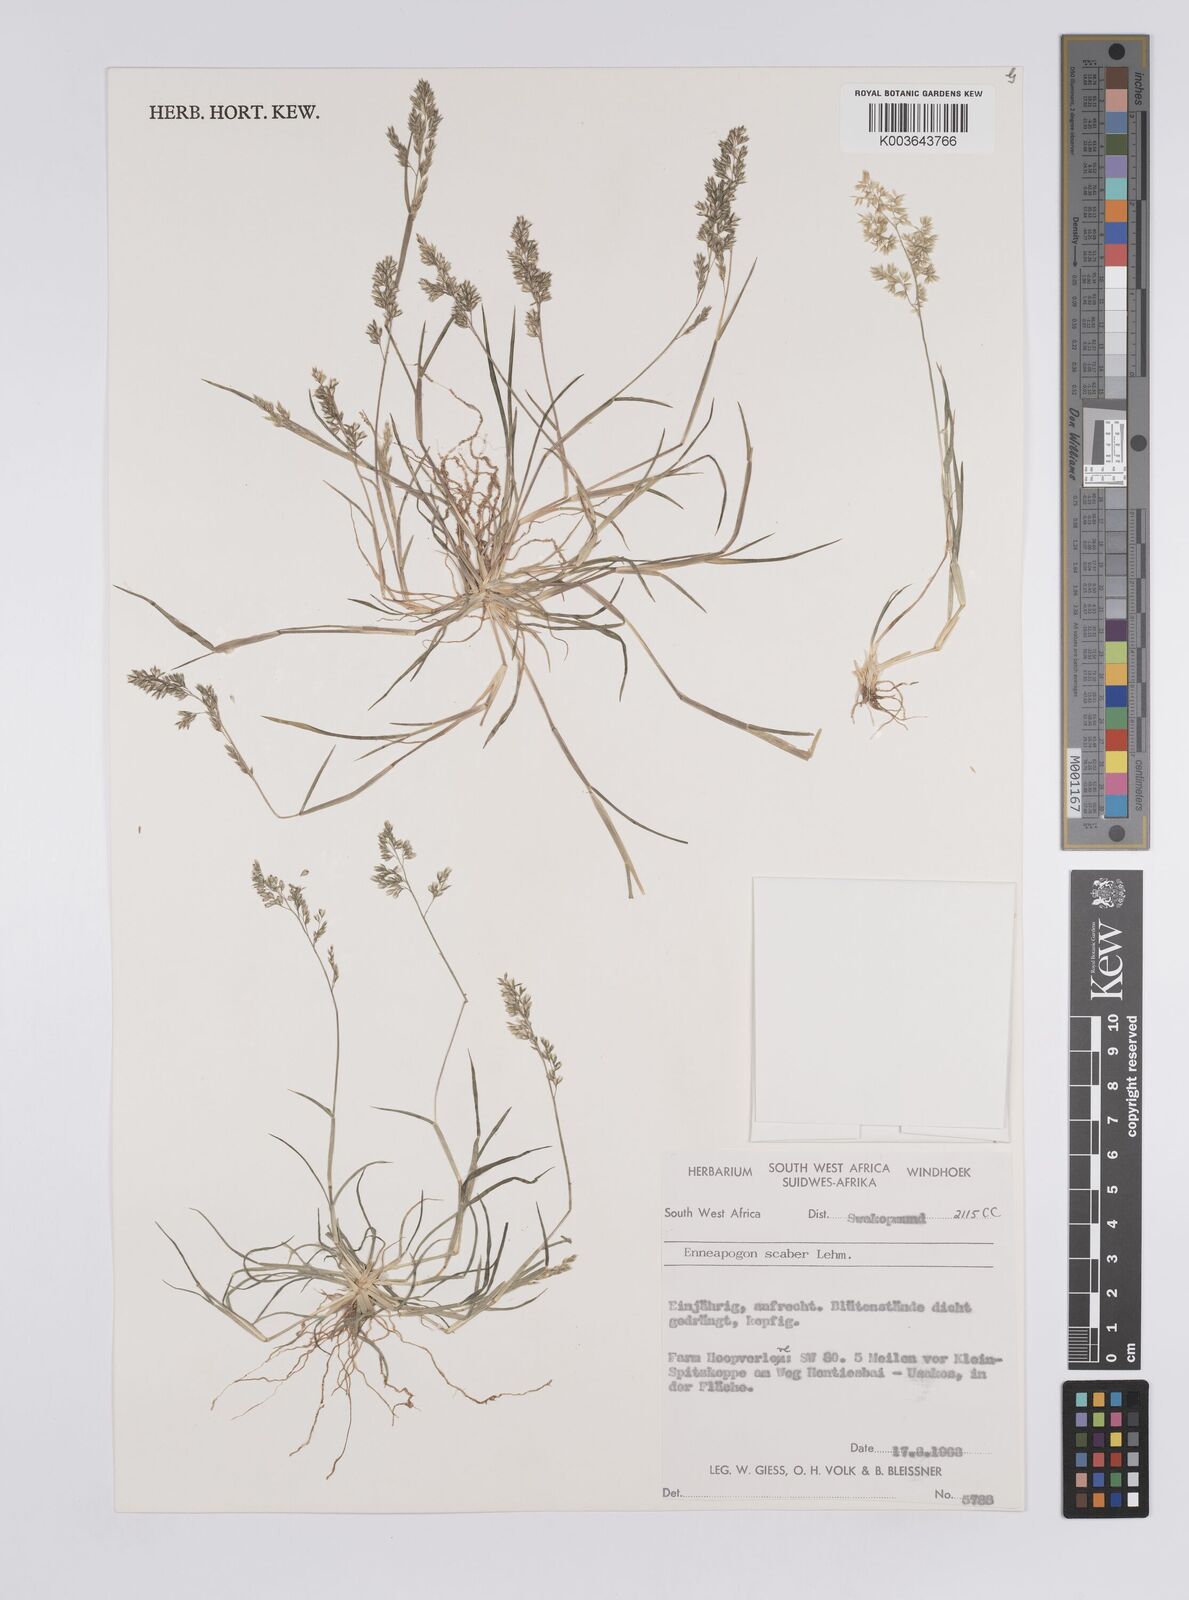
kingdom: Plantae
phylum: Tracheophyta
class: Liliopsida
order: Poales
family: Poaceae
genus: Enneapogon
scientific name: Enneapogon scaber
